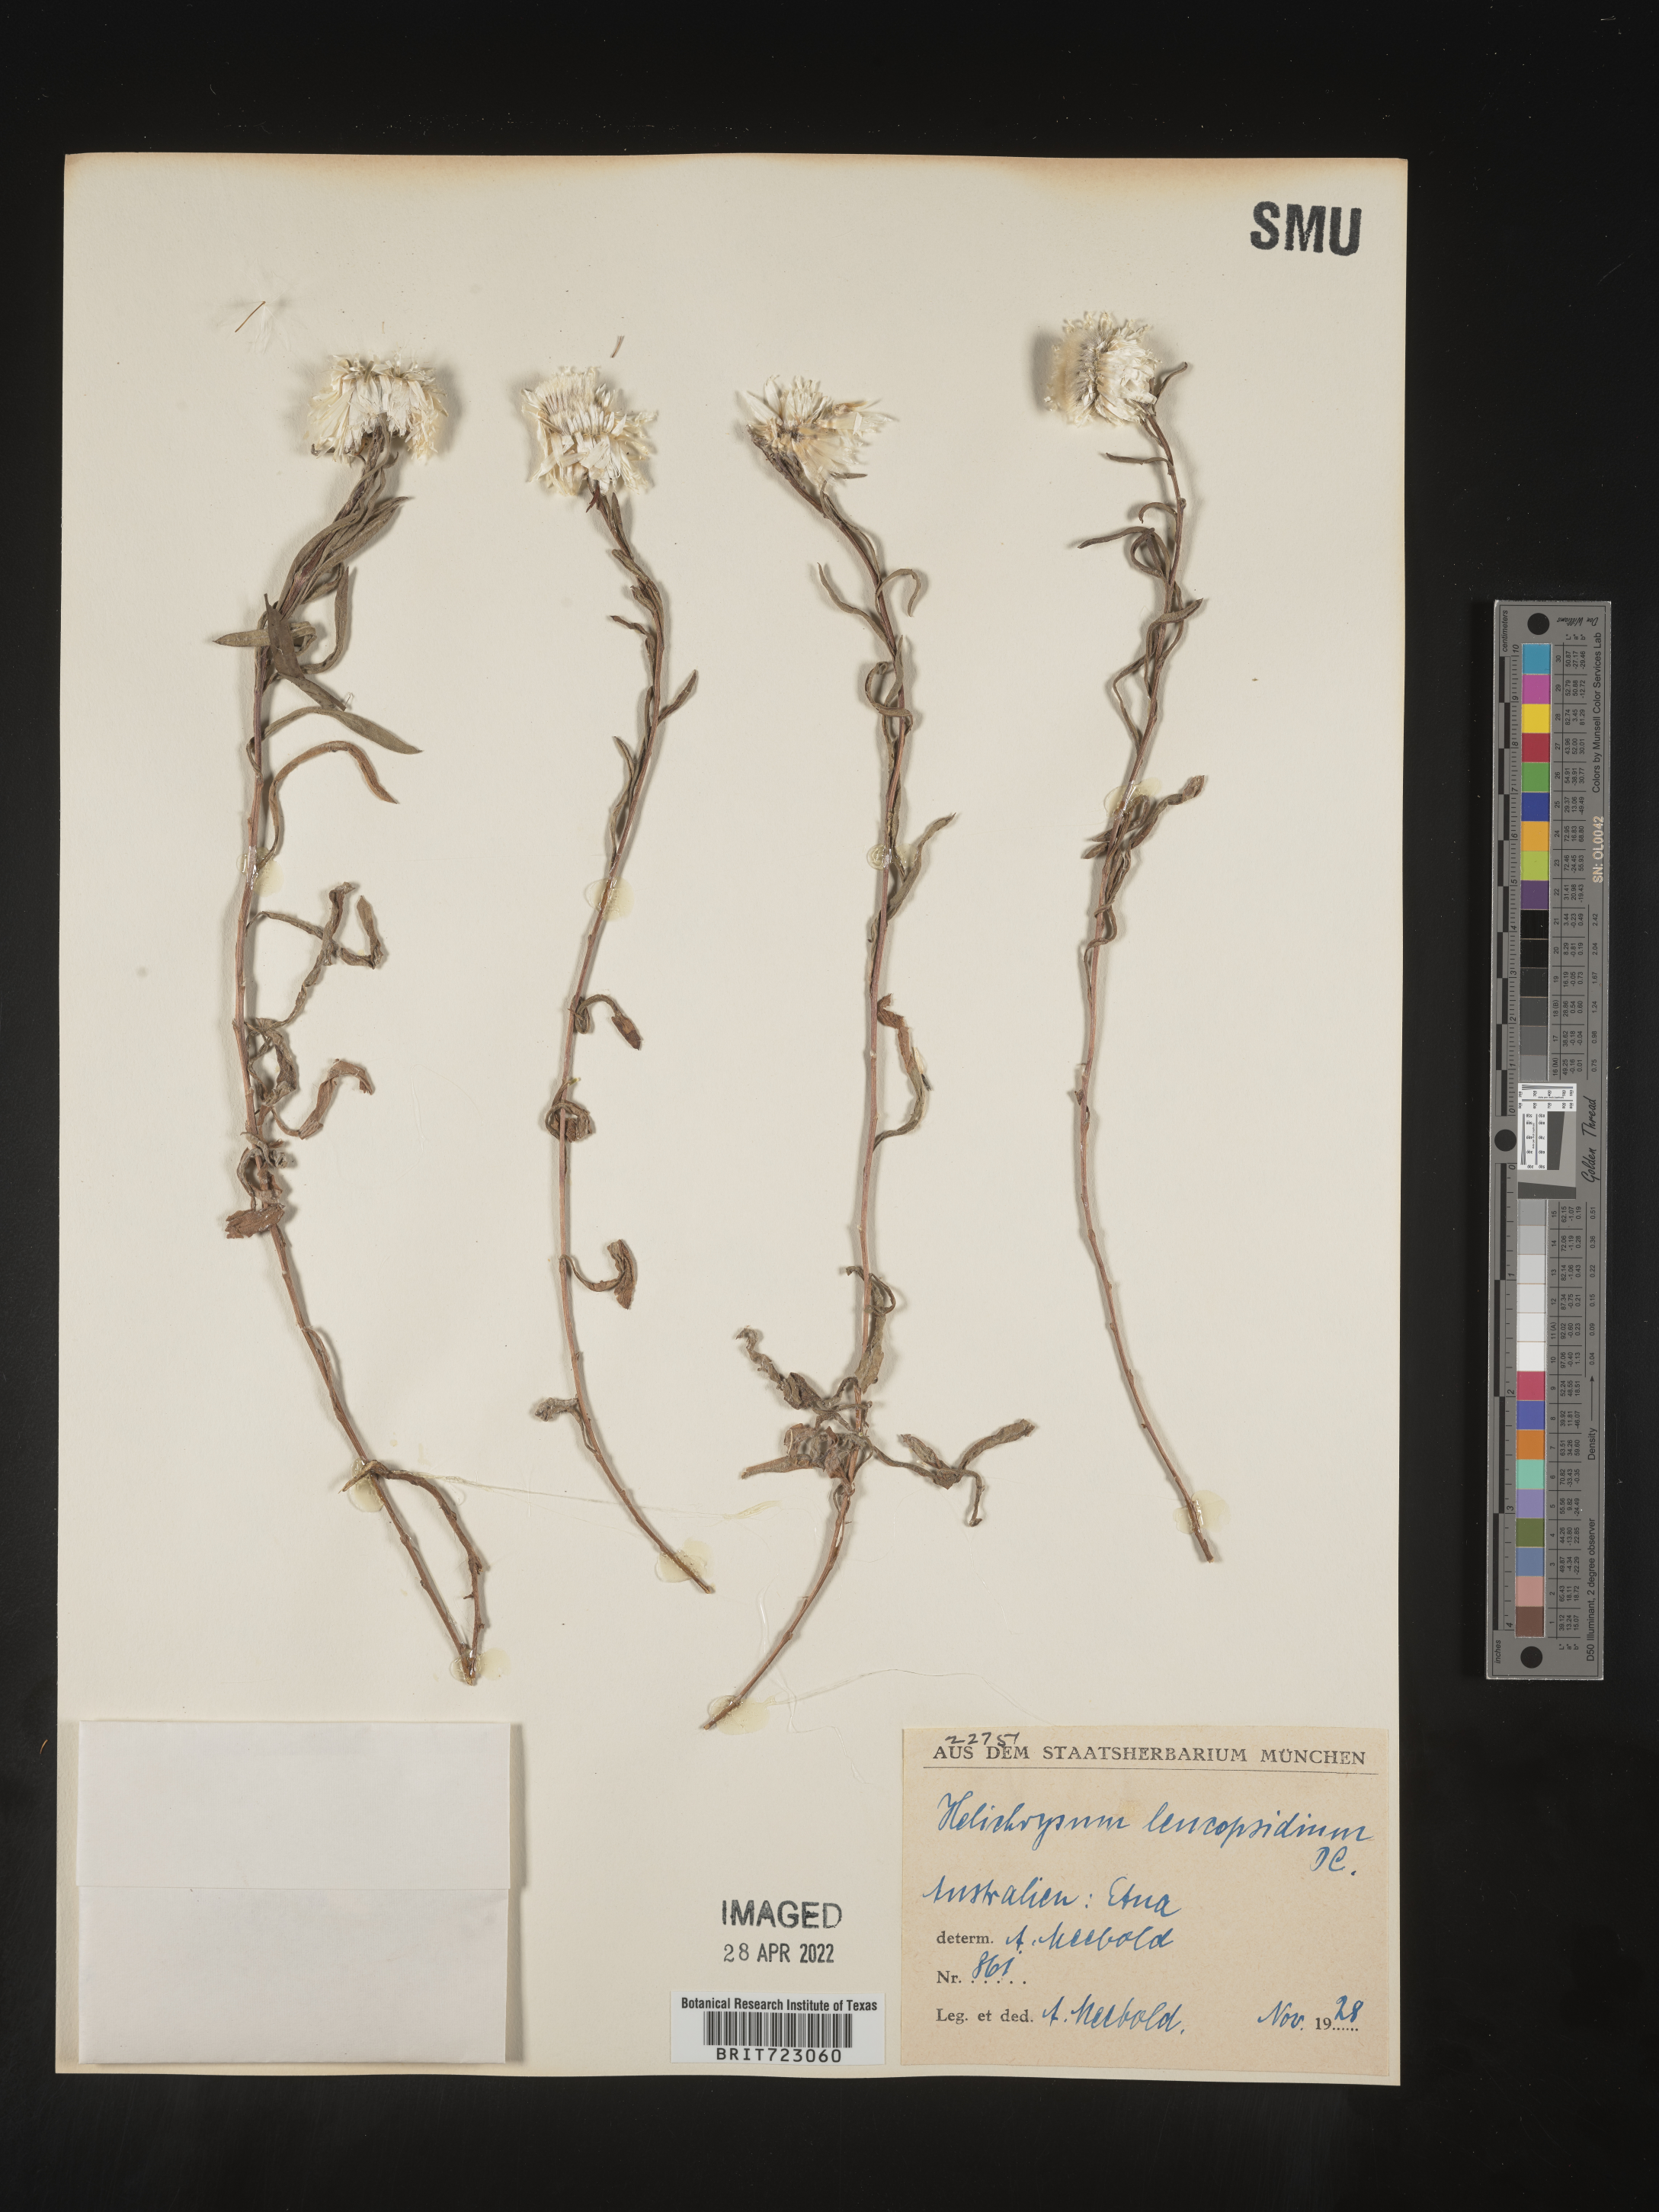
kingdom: Plantae
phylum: Tracheophyta
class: Magnoliopsida
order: Asterales
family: Asteraceae
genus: Helichrysum
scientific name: Helichrysum
